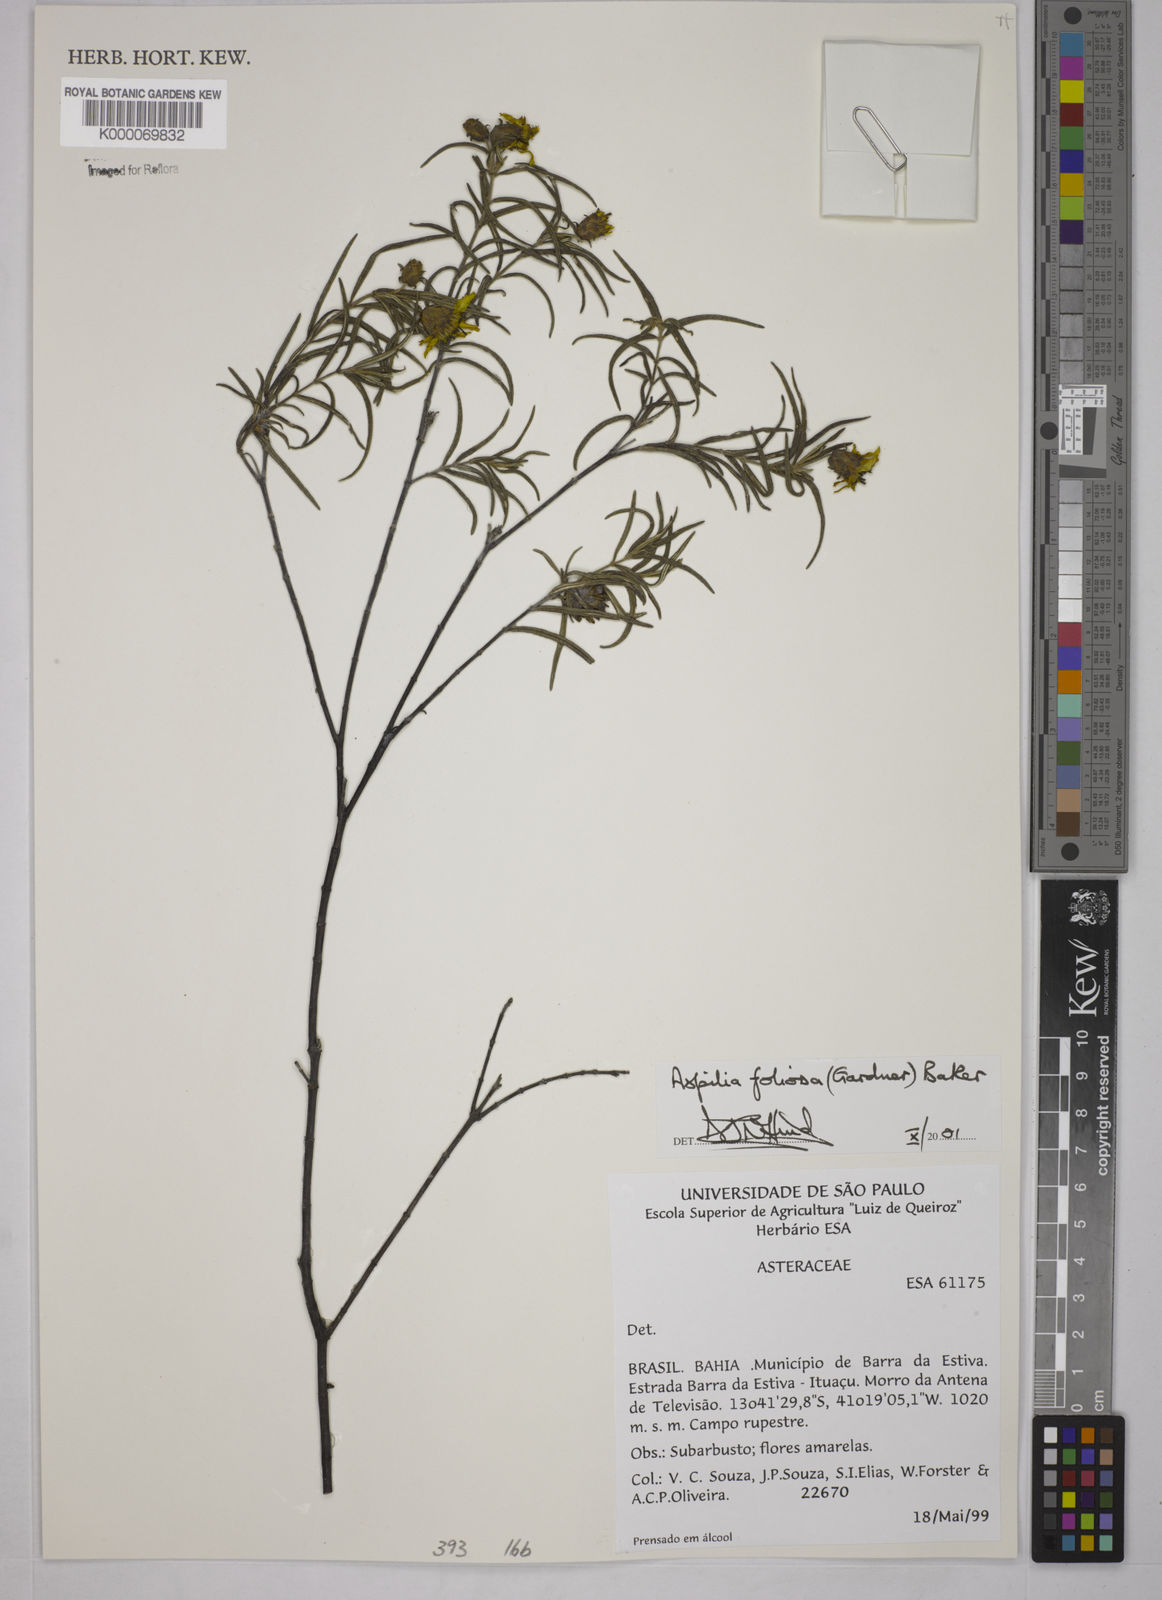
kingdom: Plantae
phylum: Tracheophyta
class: Magnoliopsida
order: Asterales
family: Asteraceae
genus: Aspilia
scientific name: Aspilia
